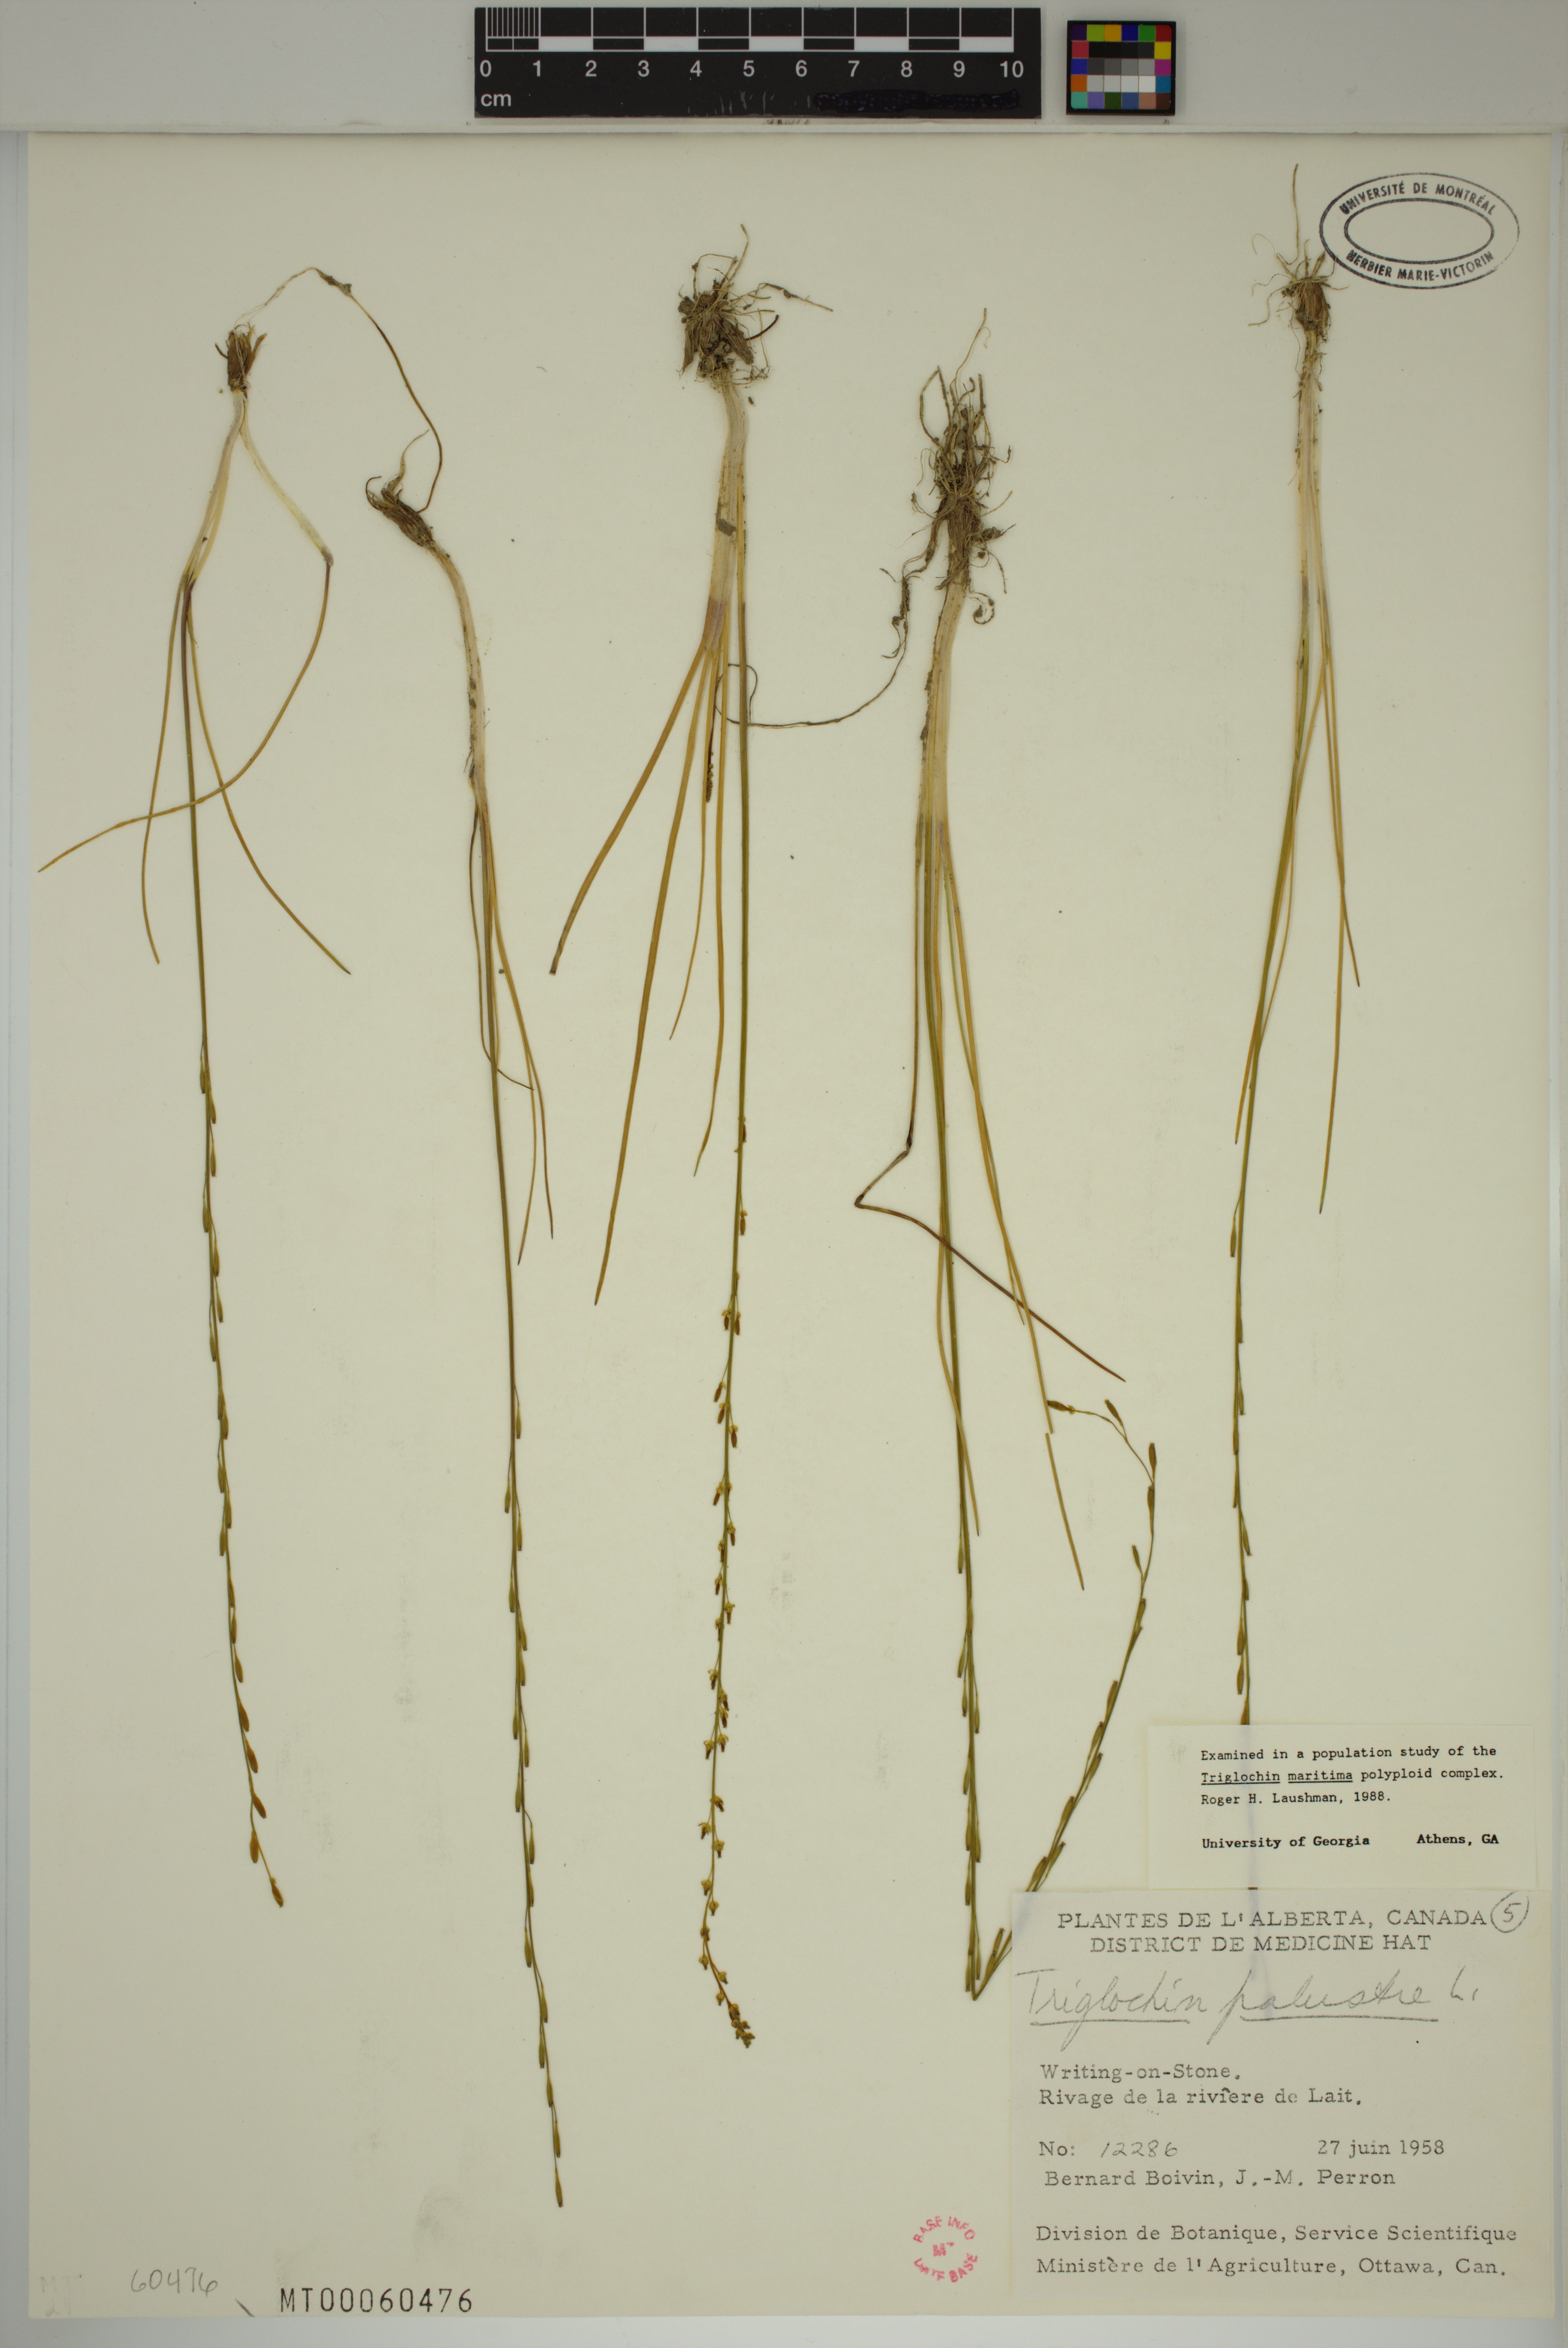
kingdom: Plantae
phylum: Tracheophyta
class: Liliopsida
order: Alismatales
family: Juncaginaceae
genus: Triglochin
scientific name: Triglochin palustris
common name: Marsh arrowgrass
